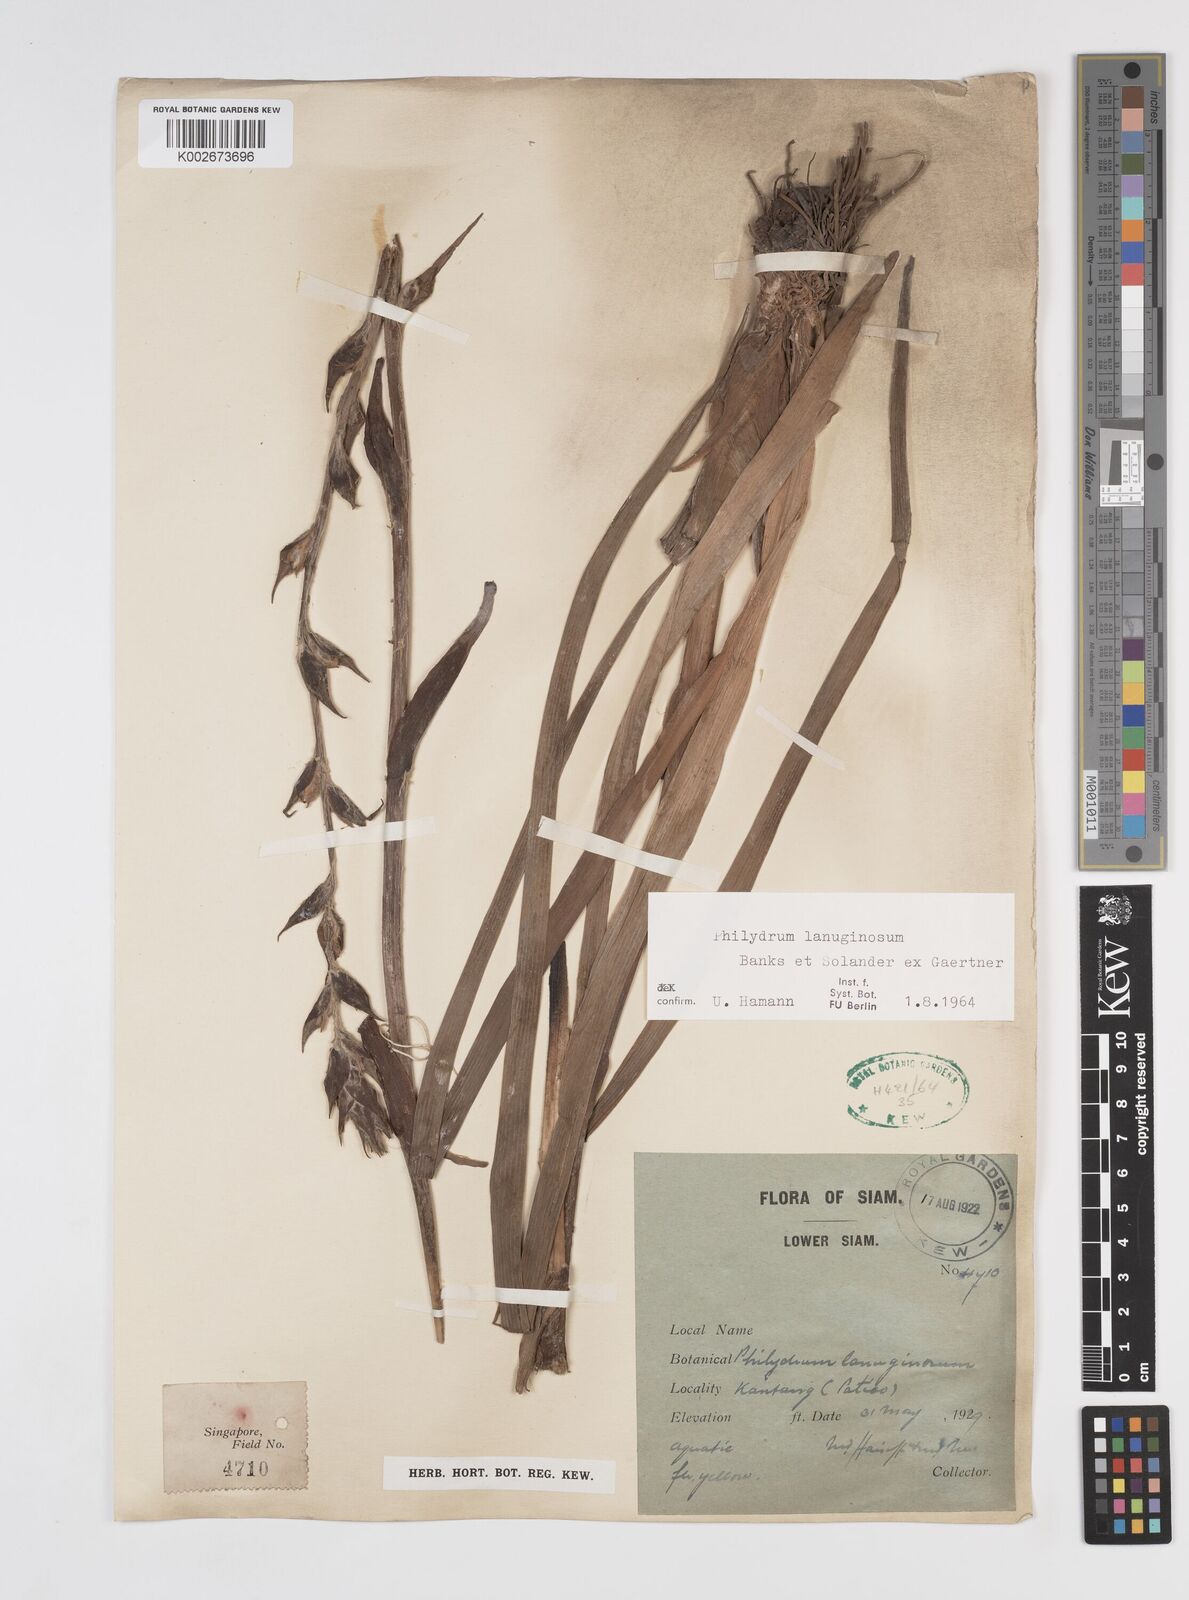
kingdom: Plantae
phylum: Tracheophyta
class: Liliopsida
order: Commelinales
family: Philydraceae
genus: Philydrum
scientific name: Philydrum lanuginosum
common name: Woolly frog's mouth
